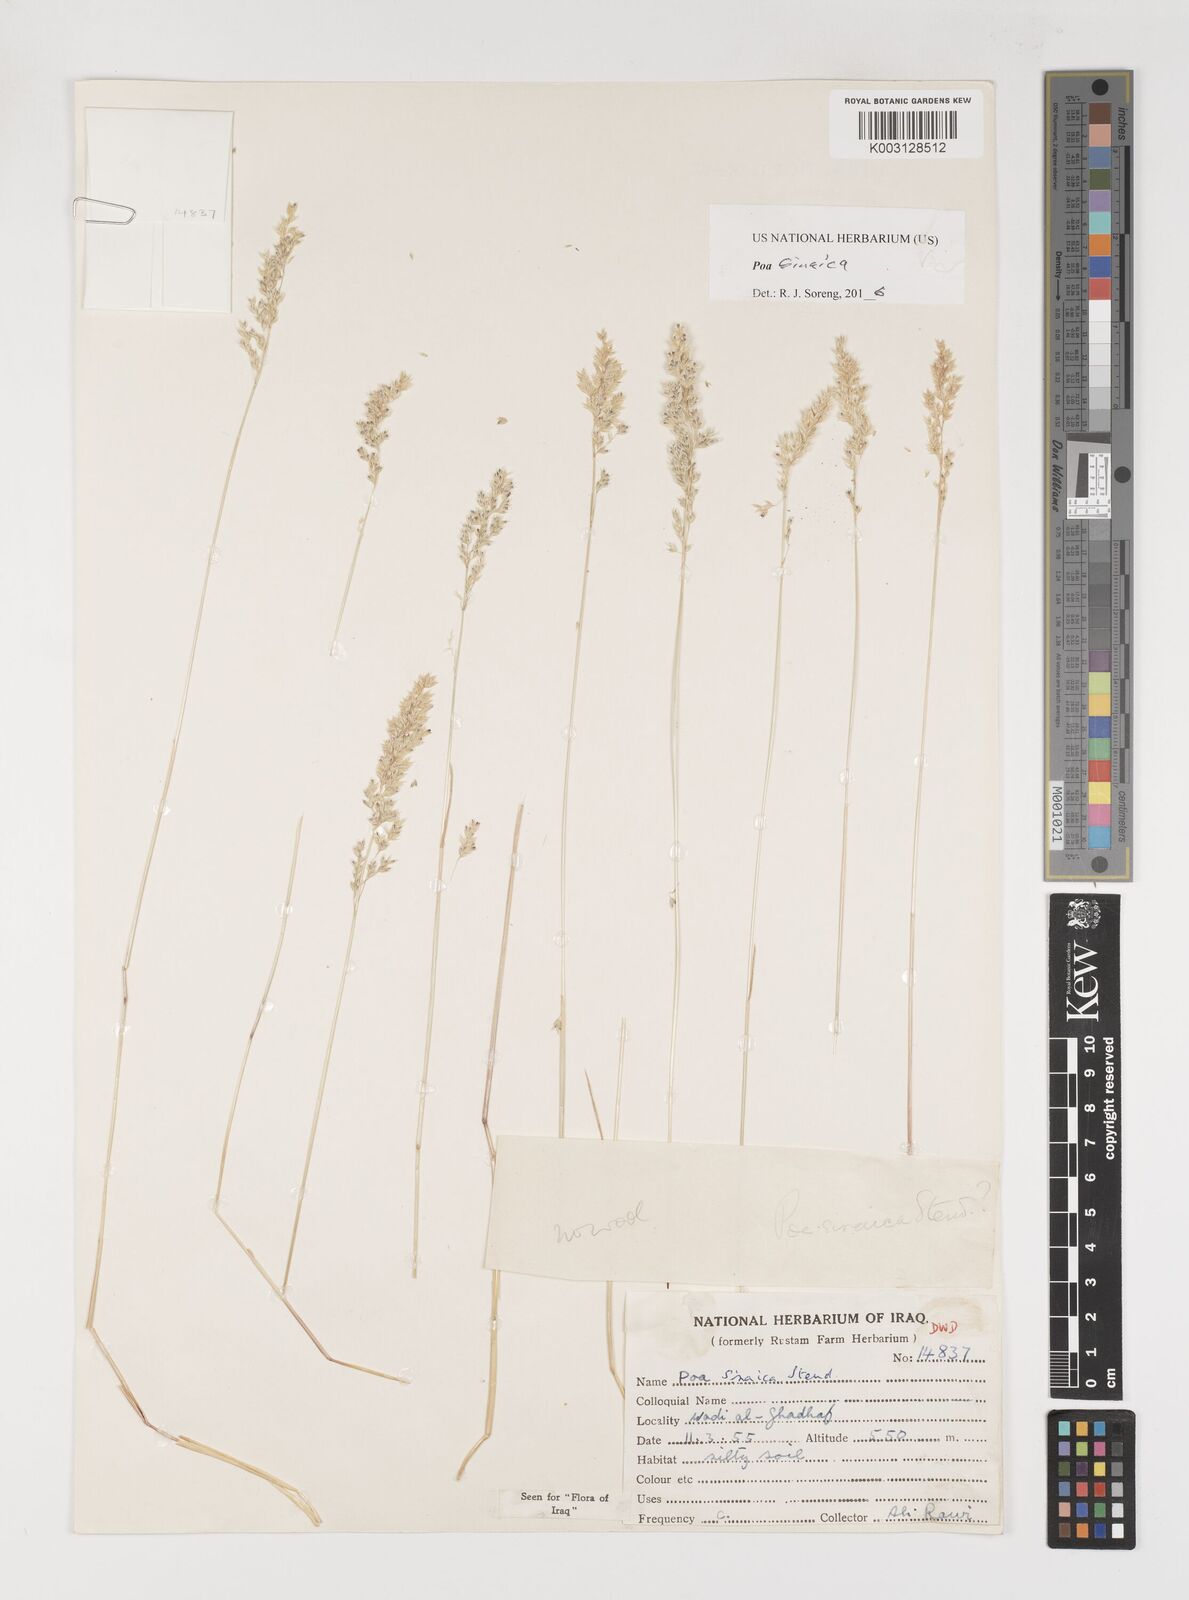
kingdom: Plantae
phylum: Tracheophyta
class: Liliopsida
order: Poales
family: Poaceae
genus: Poa
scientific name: Poa sinaica
